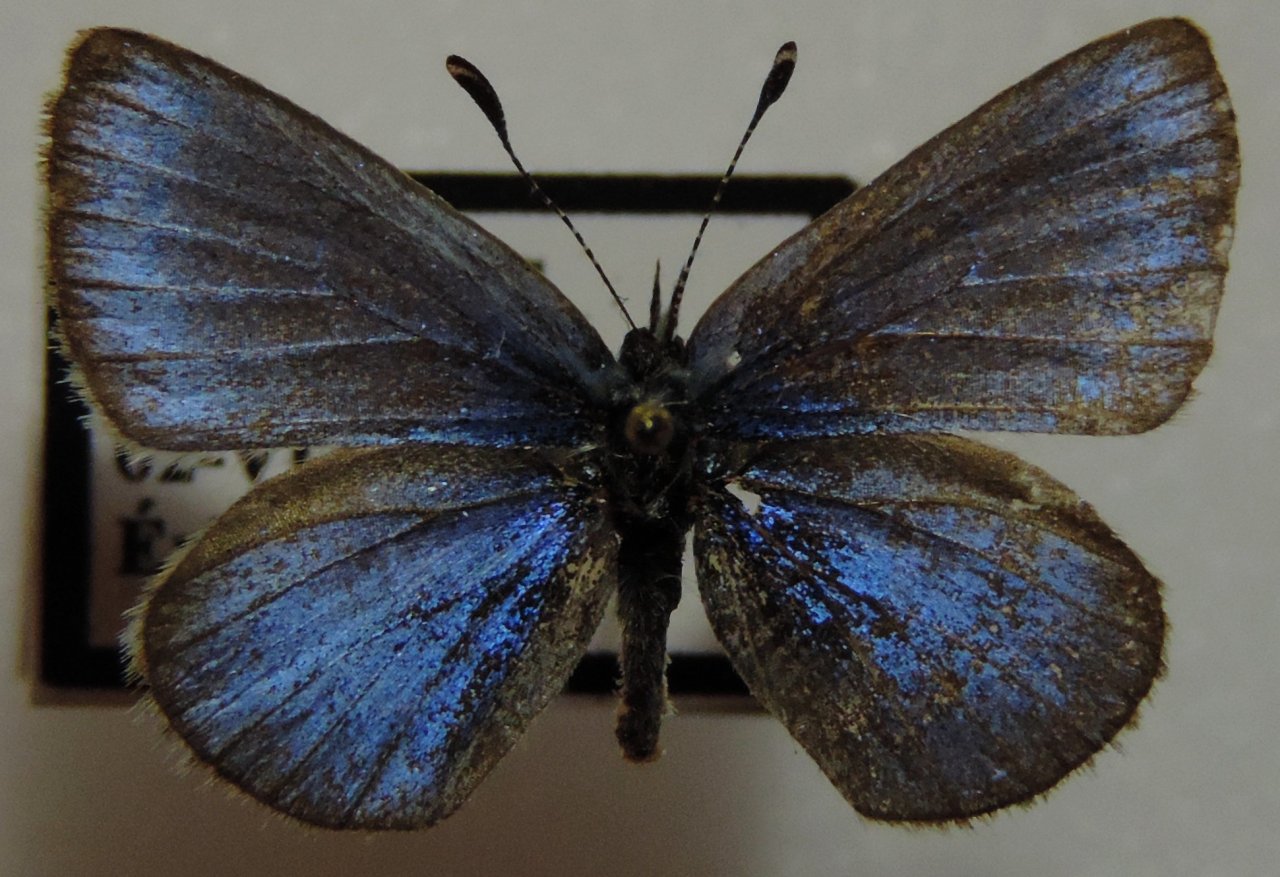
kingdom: Animalia
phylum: Arthropoda
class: Insecta
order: Lepidoptera
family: Lycaenidae
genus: Glaucopsyche
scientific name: Glaucopsyche lygdamus
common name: Silvery Blue
